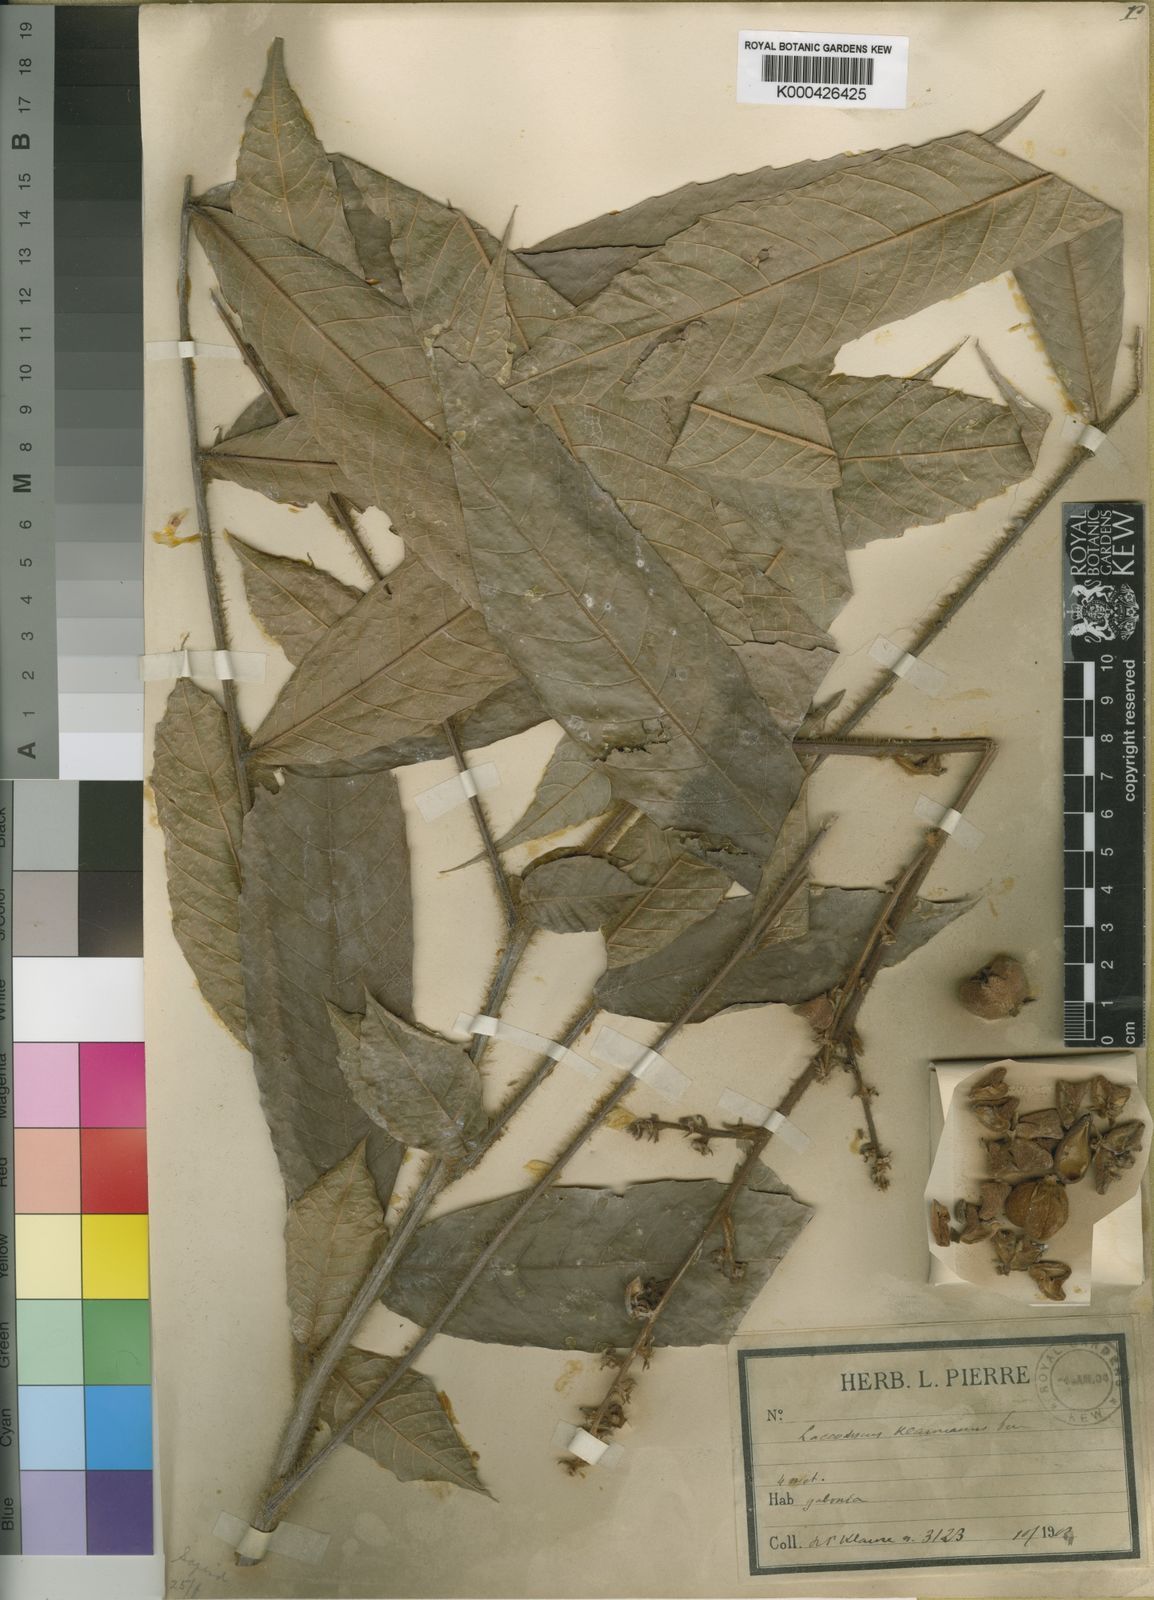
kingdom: Plantae
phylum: Tracheophyta
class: Magnoliopsida
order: Sapindales
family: Sapindaceae
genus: Laccodiscus
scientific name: Laccodiscus klaineanus
